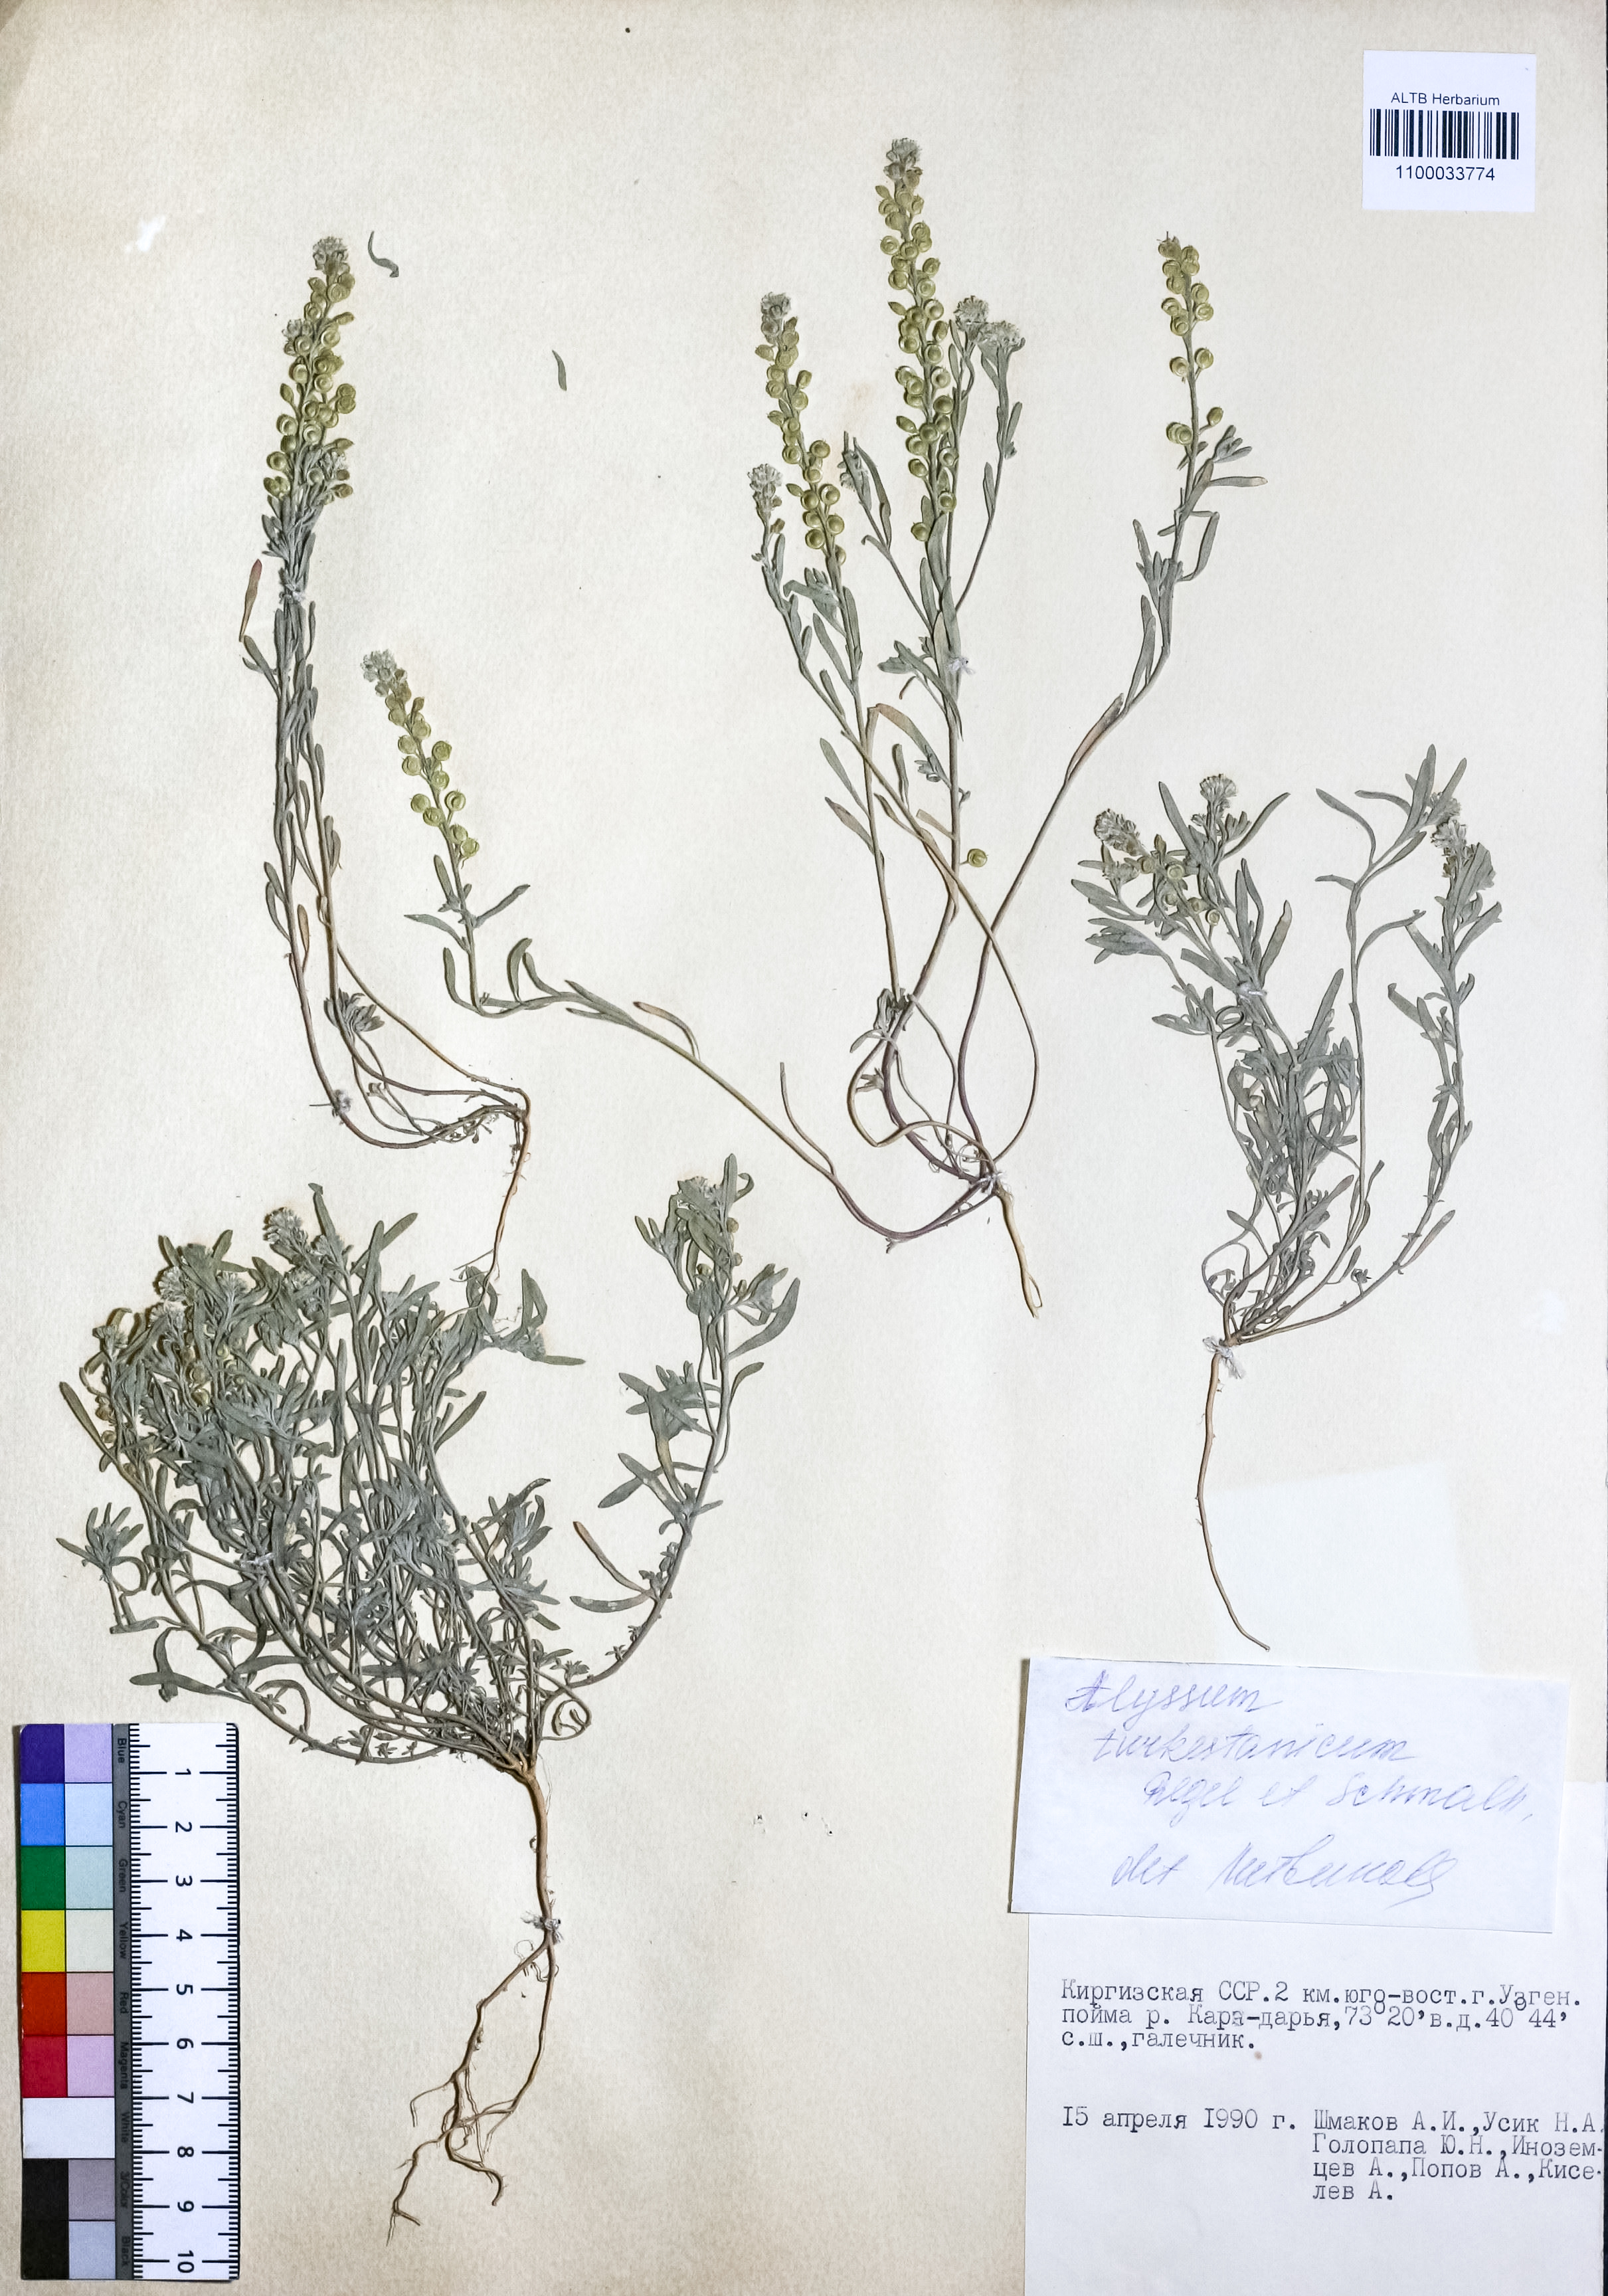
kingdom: Plantae
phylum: Tracheophyta
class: Magnoliopsida
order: Brassicales
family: Brassicaceae
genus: Alyssum
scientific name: Alyssum turkestanicum
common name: Desert alyssum
